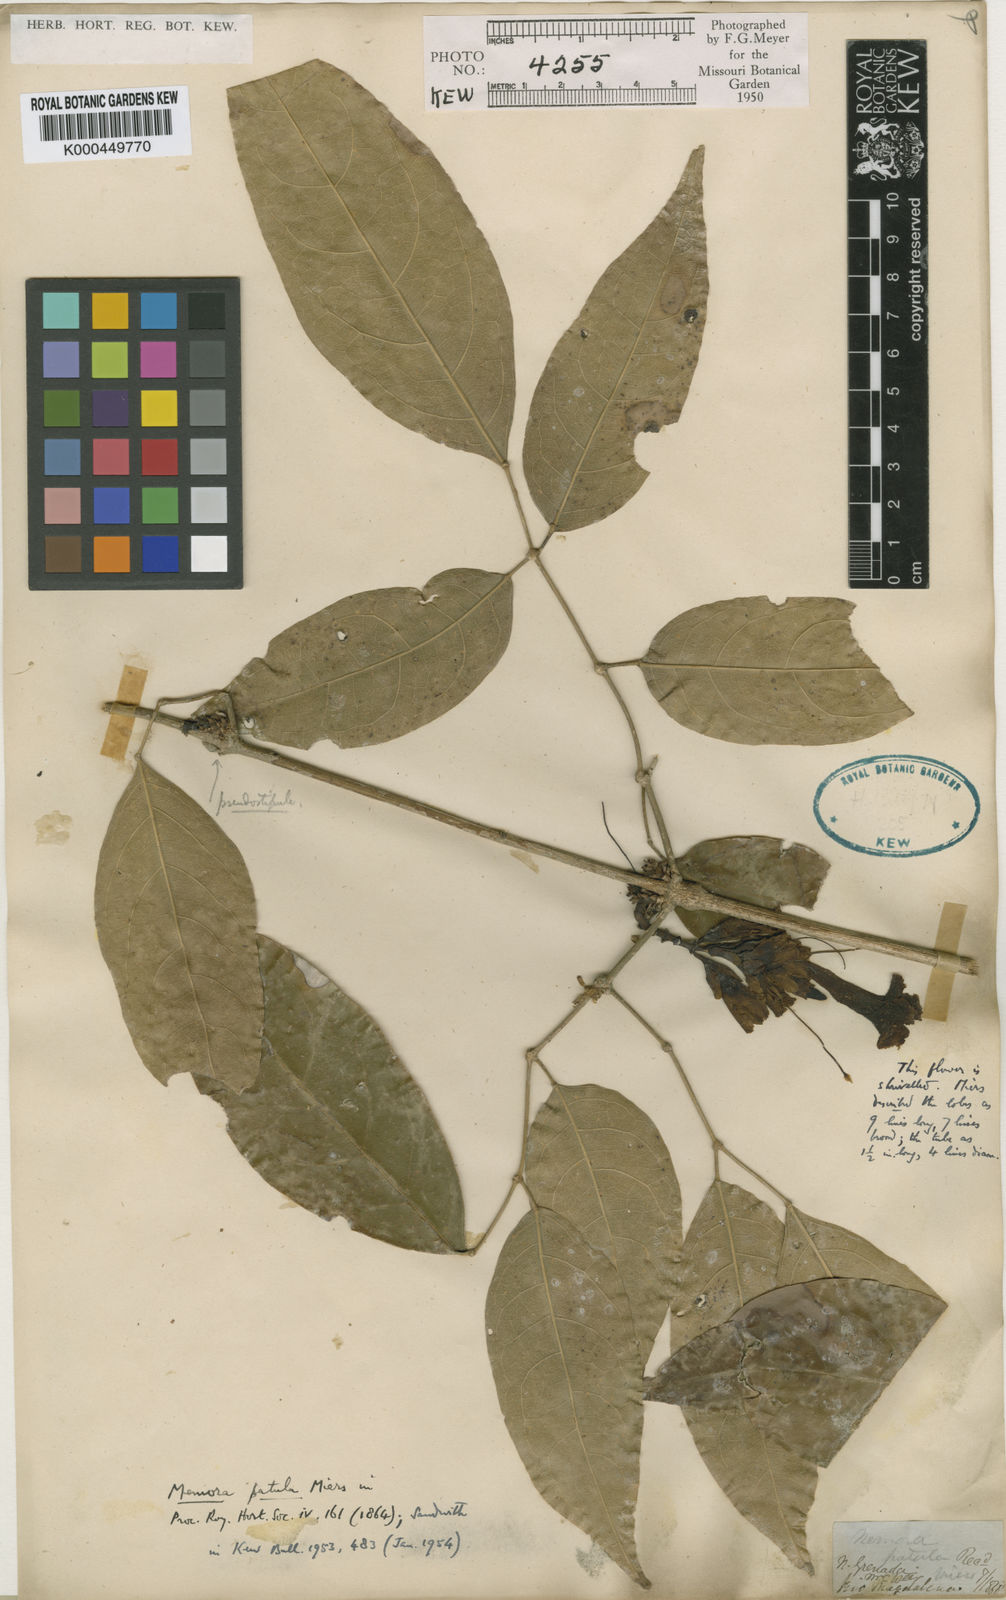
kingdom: Plantae
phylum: Tracheophyta
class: Magnoliopsida
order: Lamiales
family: Bignoniaceae
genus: Adenocalymma
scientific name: Adenocalymma patulum
